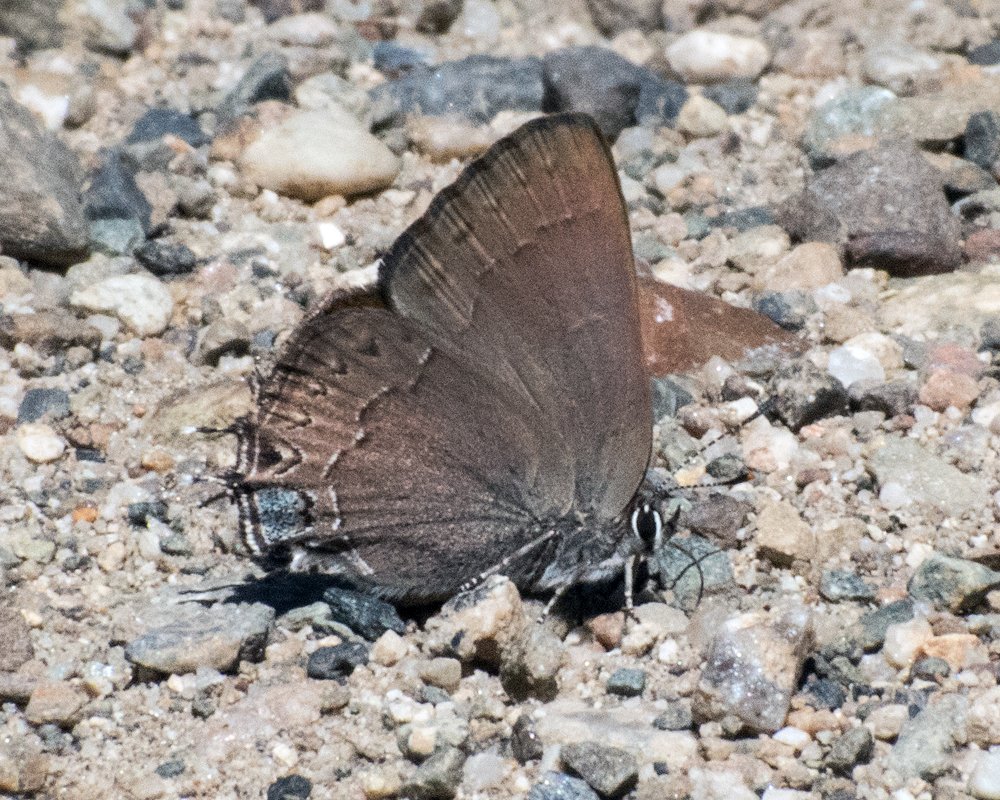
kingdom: Animalia
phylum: Arthropoda
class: Insecta
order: Lepidoptera
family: Lycaenidae
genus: Strymon
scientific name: Strymon saepium
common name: Hedgerow Hairstreak
